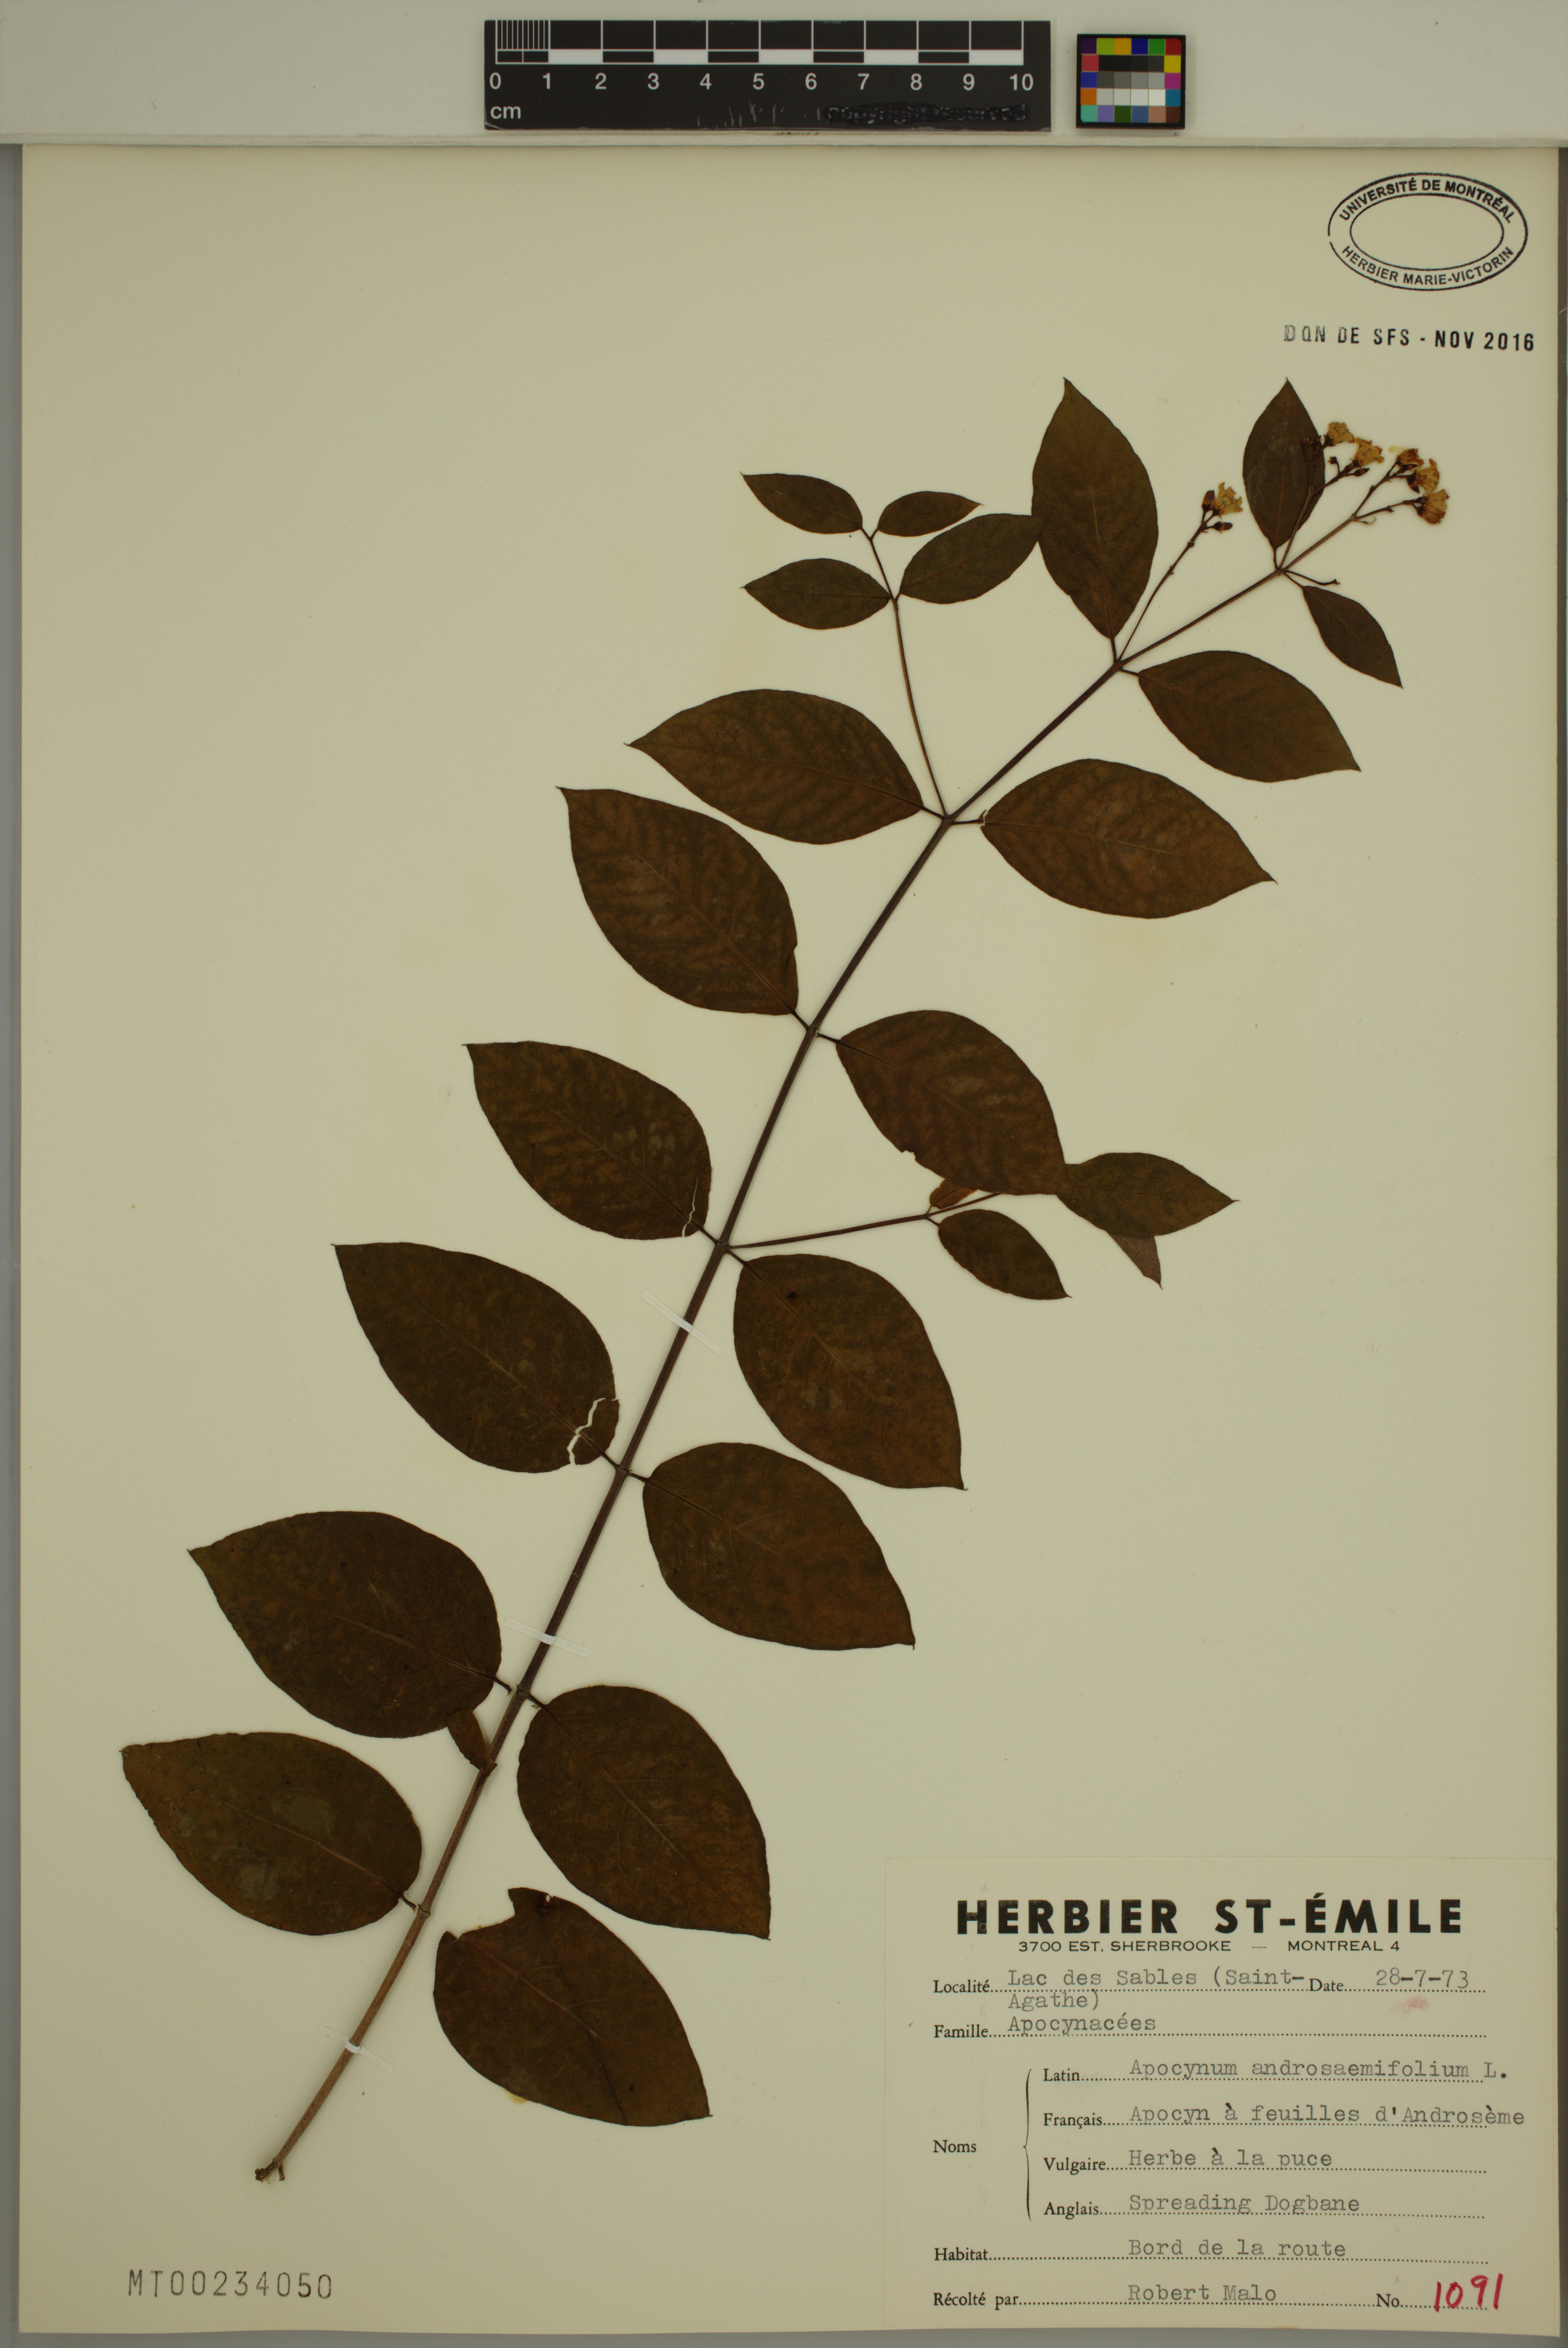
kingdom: Plantae
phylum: Tracheophyta
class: Magnoliopsida
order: Gentianales
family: Apocynaceae
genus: Apocynum
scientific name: Apocynum androsaemifolium
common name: Spreading dogbane
